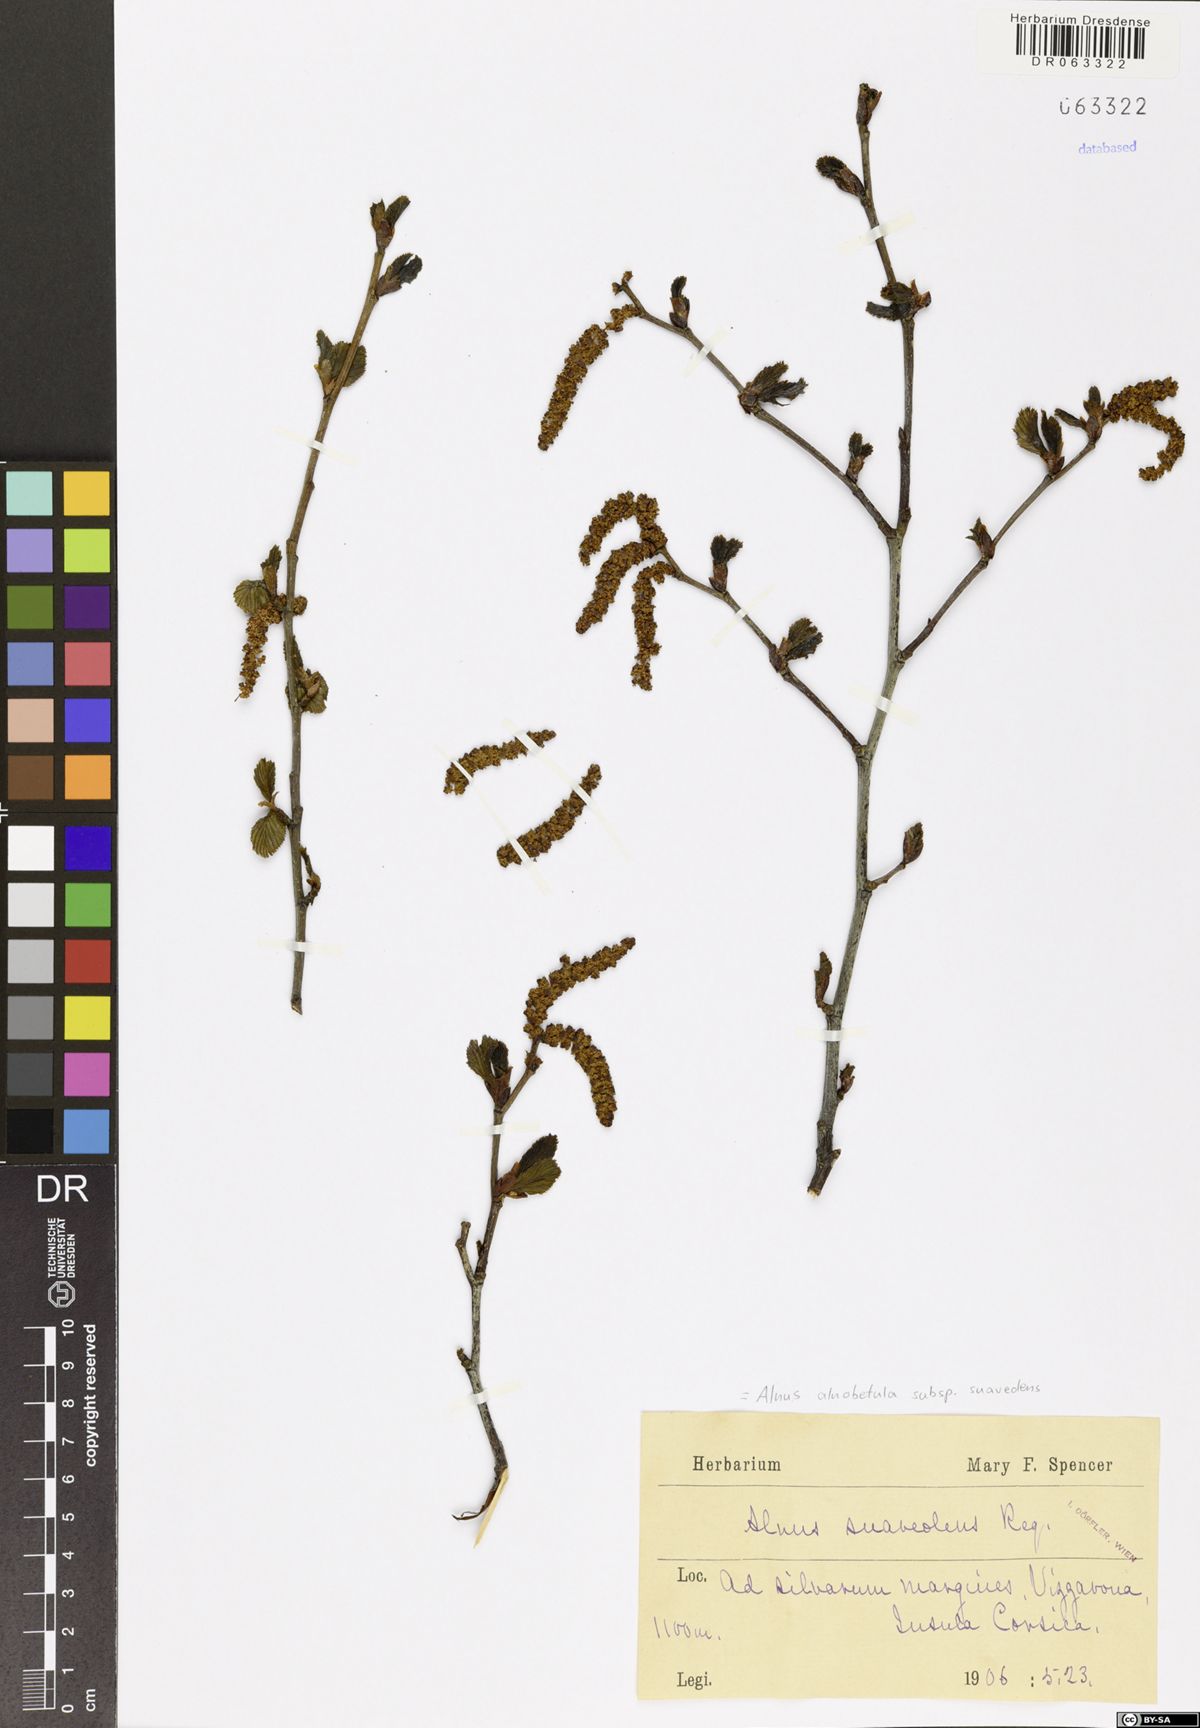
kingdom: Plantae
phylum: Tracheophyta
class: Magnoliopsida
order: Fagales
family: Betulaceae
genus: Alnus
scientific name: Alnus alnobetula
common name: Green alder
